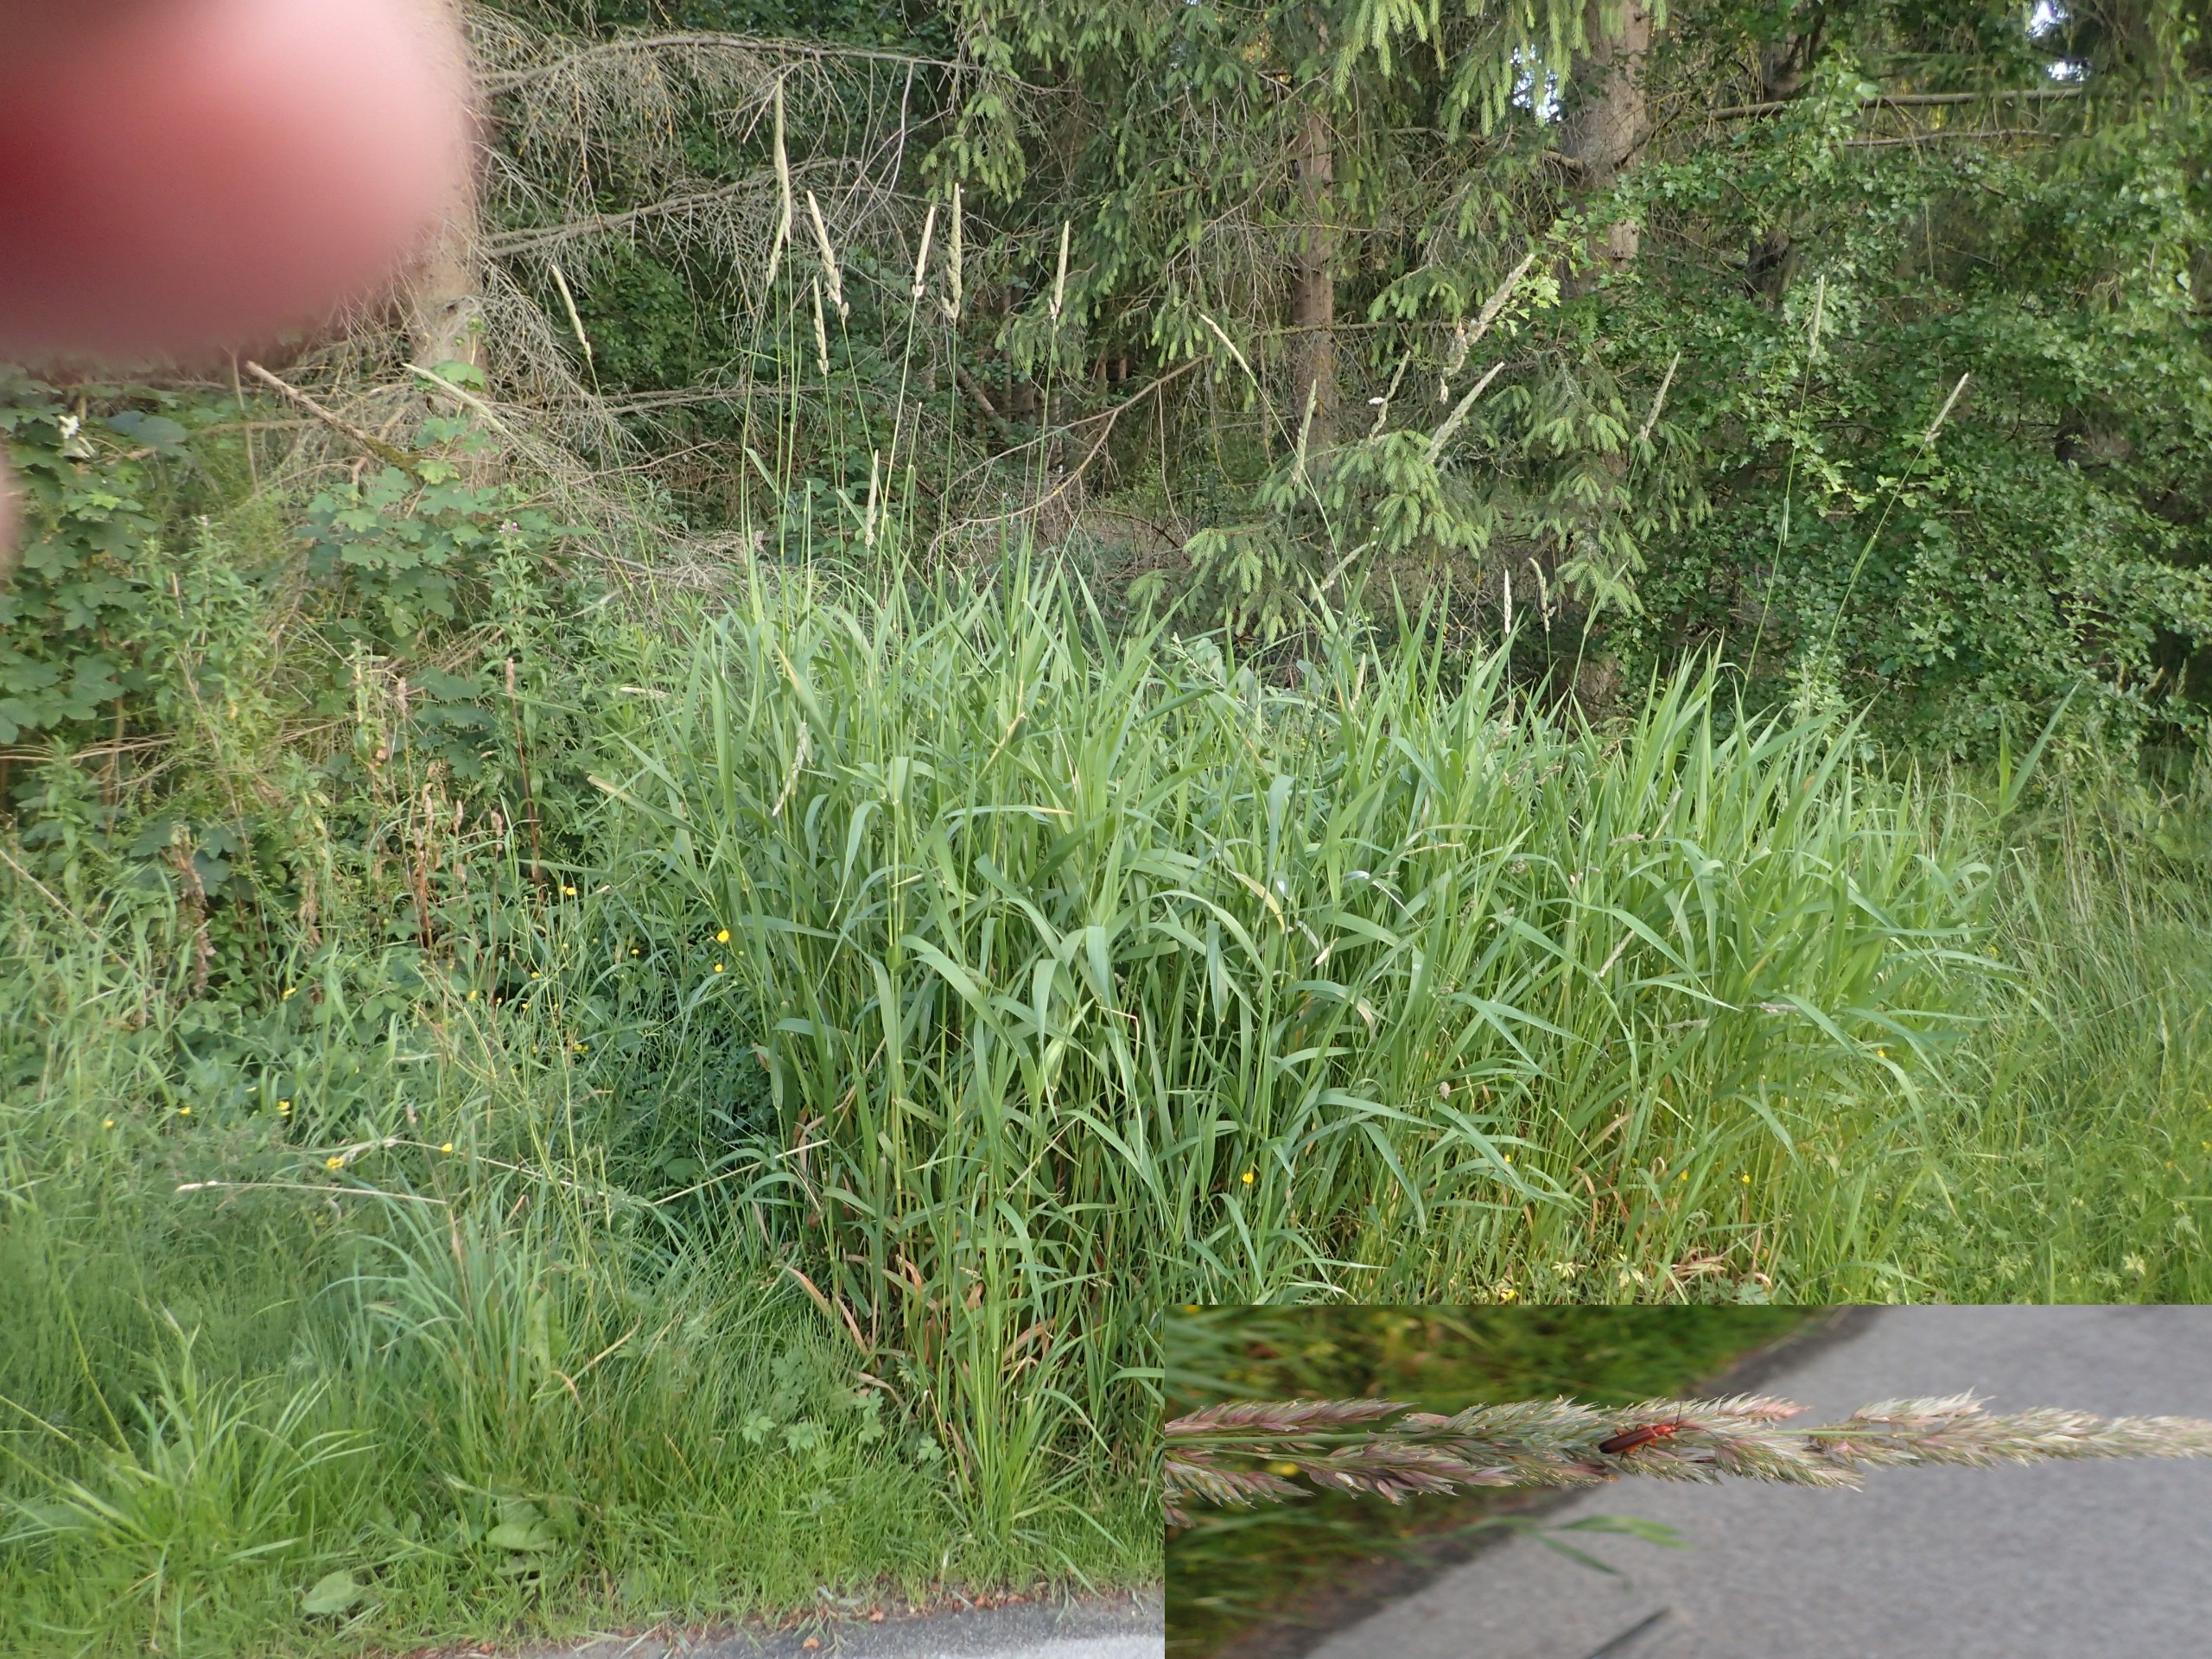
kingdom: Plantae
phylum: Tracheophyta
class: Liliopsida
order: Poales
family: Poaceae
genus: Phalaris
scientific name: Phalaris arundinacea
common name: Rørgræs
